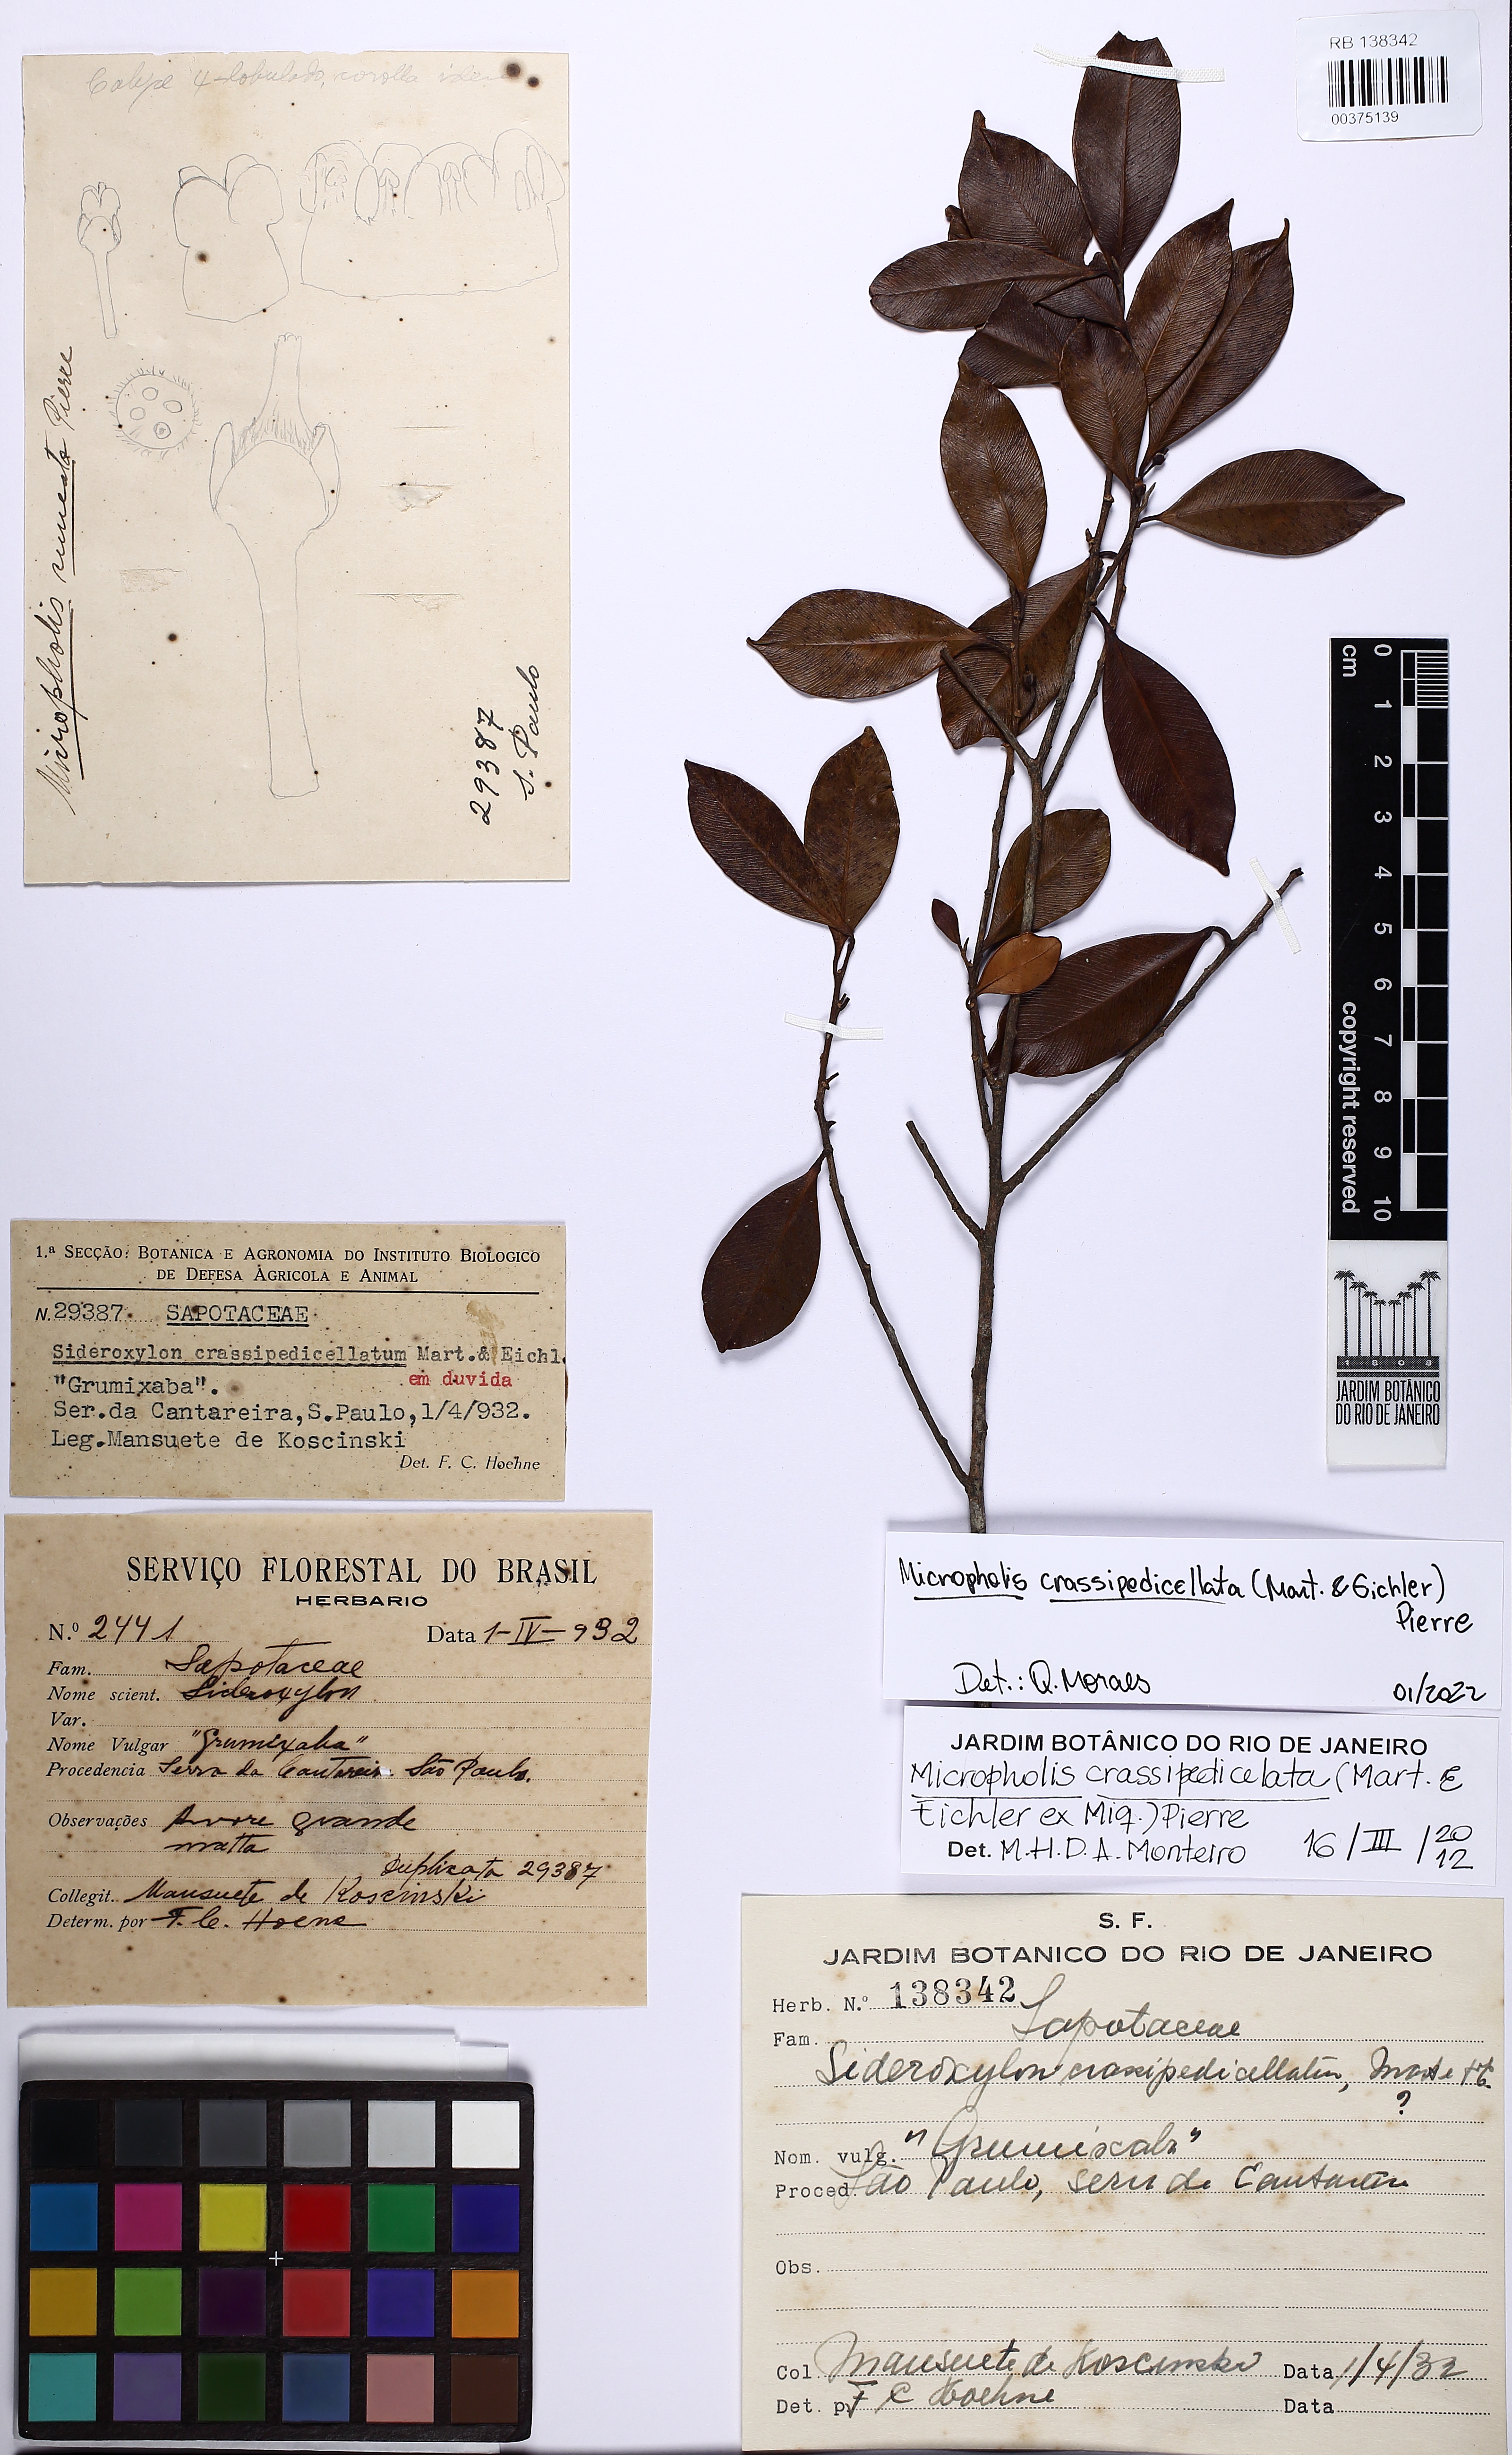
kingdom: Plantae
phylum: Tracheophyta
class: Magnoliopsida
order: Ericales
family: Sapotaceae
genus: Micropholis
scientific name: Micropholis crassipedicellata
